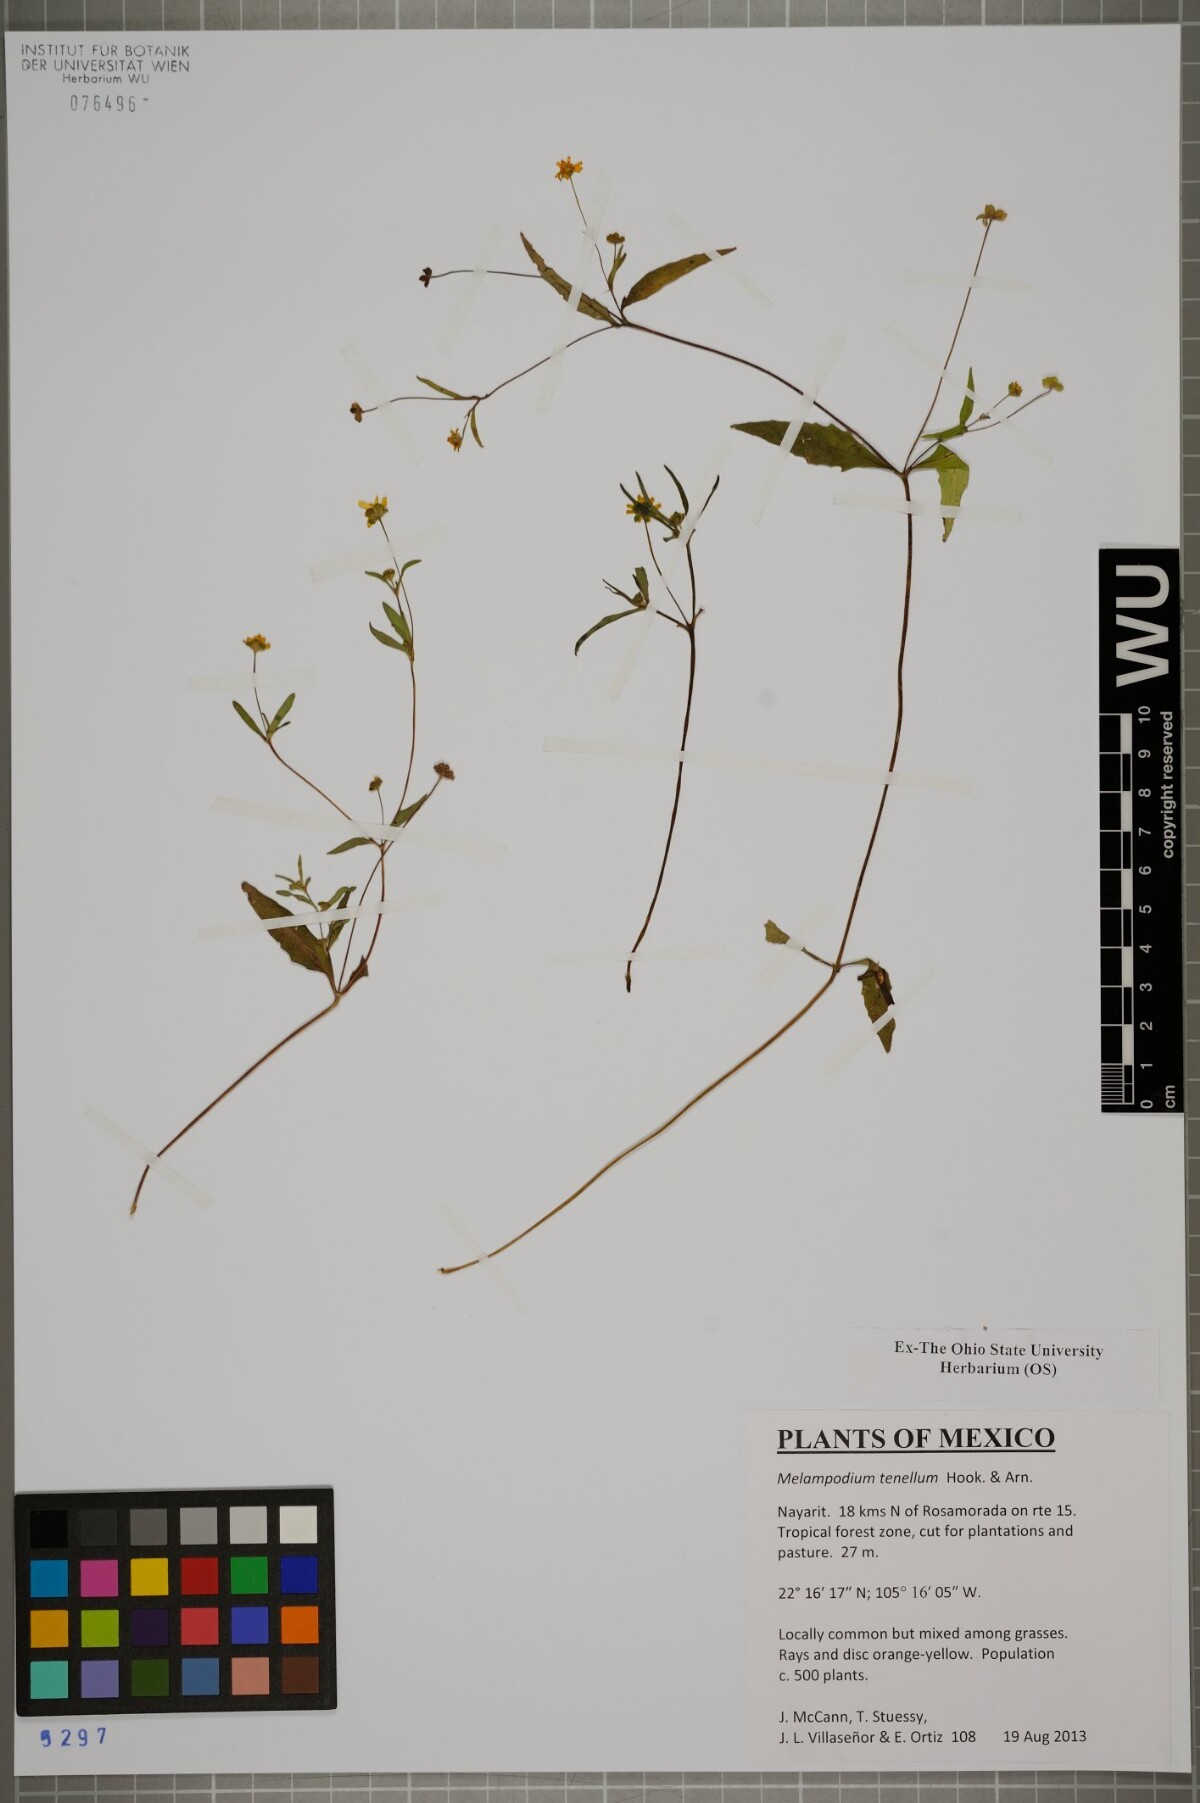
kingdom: Plantae
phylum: Tracheophyta
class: Magnoliopsida
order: Asterales
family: Asteraceae
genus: Melampodium
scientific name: Melampodium tenellum
